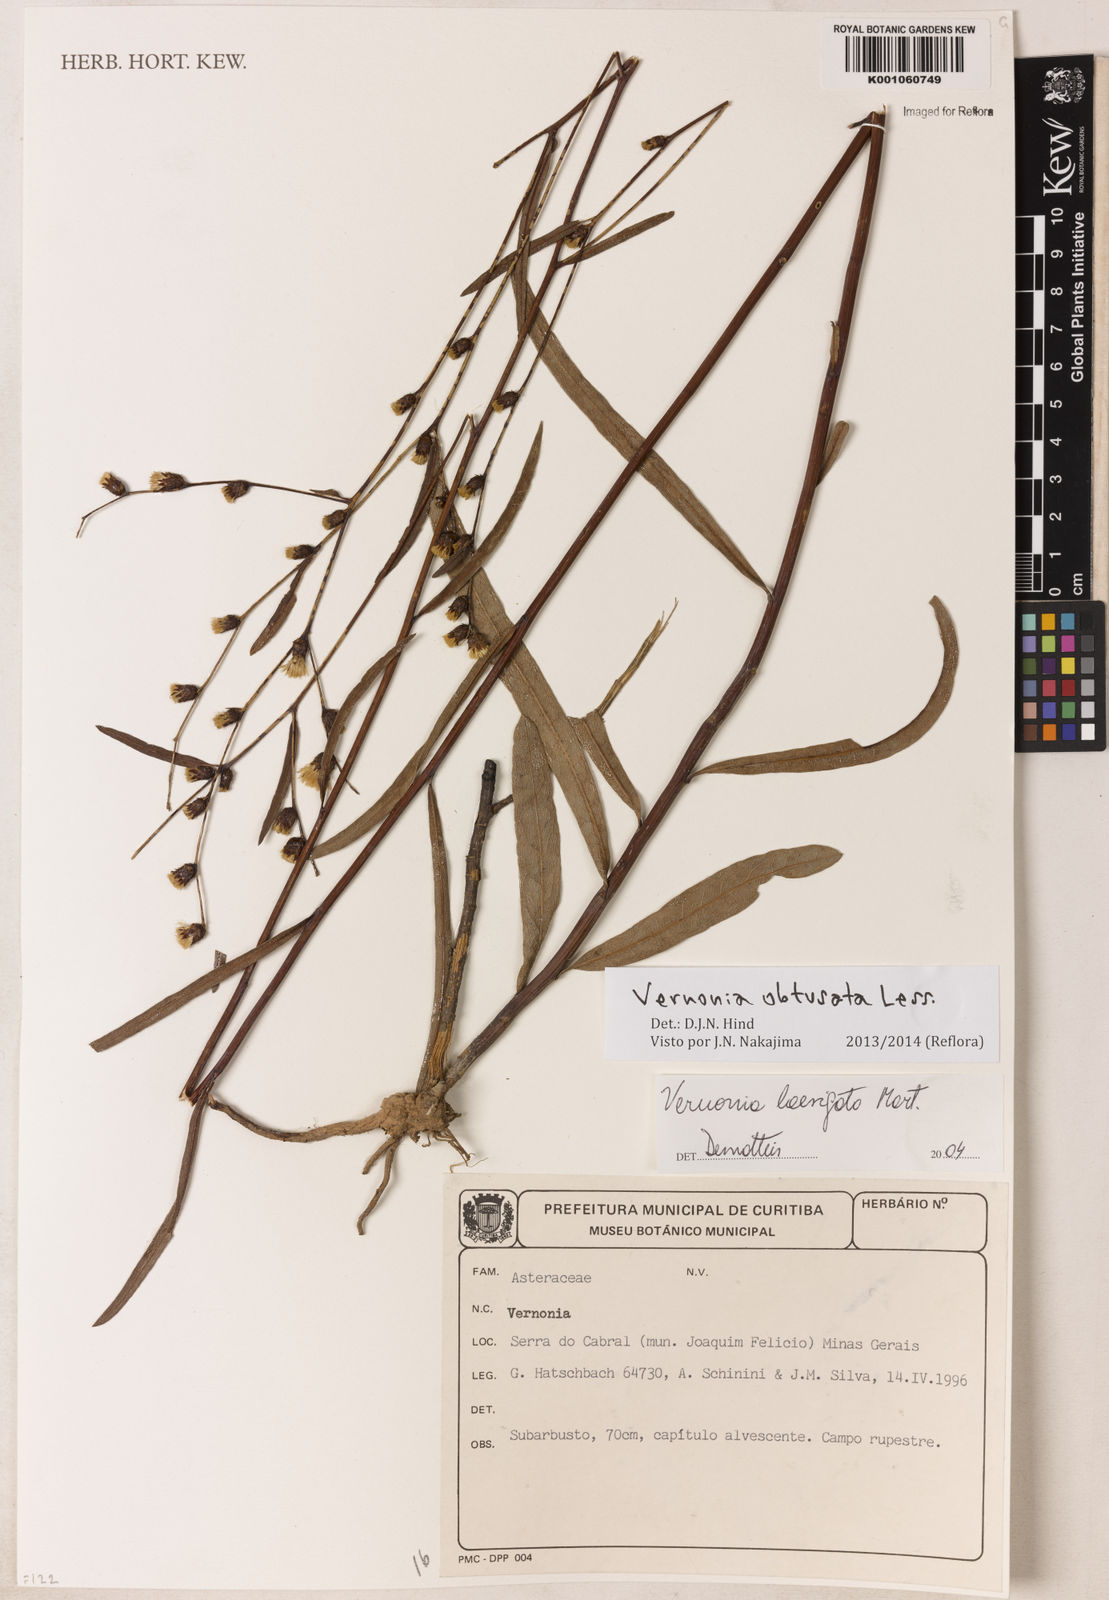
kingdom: Plantae
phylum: Tracheophyta
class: Magnoliopsida
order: Asterales
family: Asteraceae
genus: Lessingianthus
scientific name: Lessingianthus obtusatus
